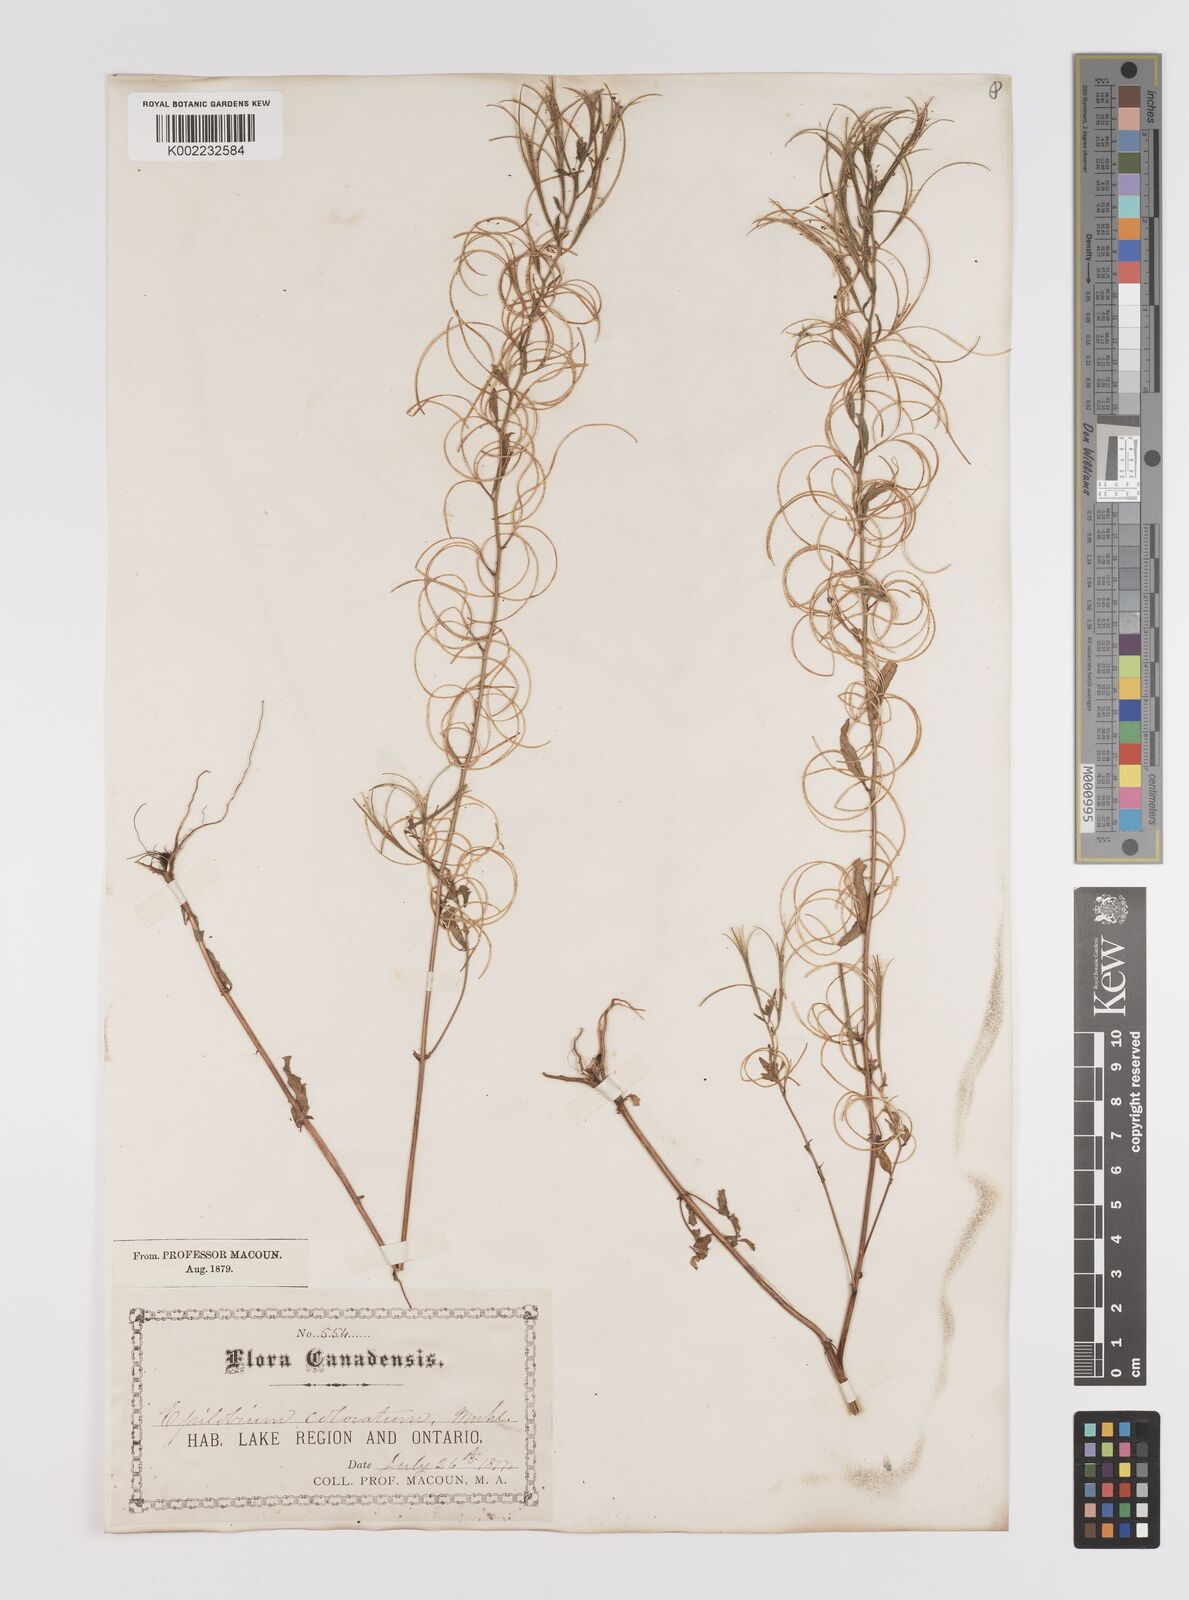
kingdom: Plantae
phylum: Tracheophyta
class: Magnoliopsida
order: Myrtales
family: Onagraceae
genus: Epilobium
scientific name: Epilobium coloratum
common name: Bronze willowherb
